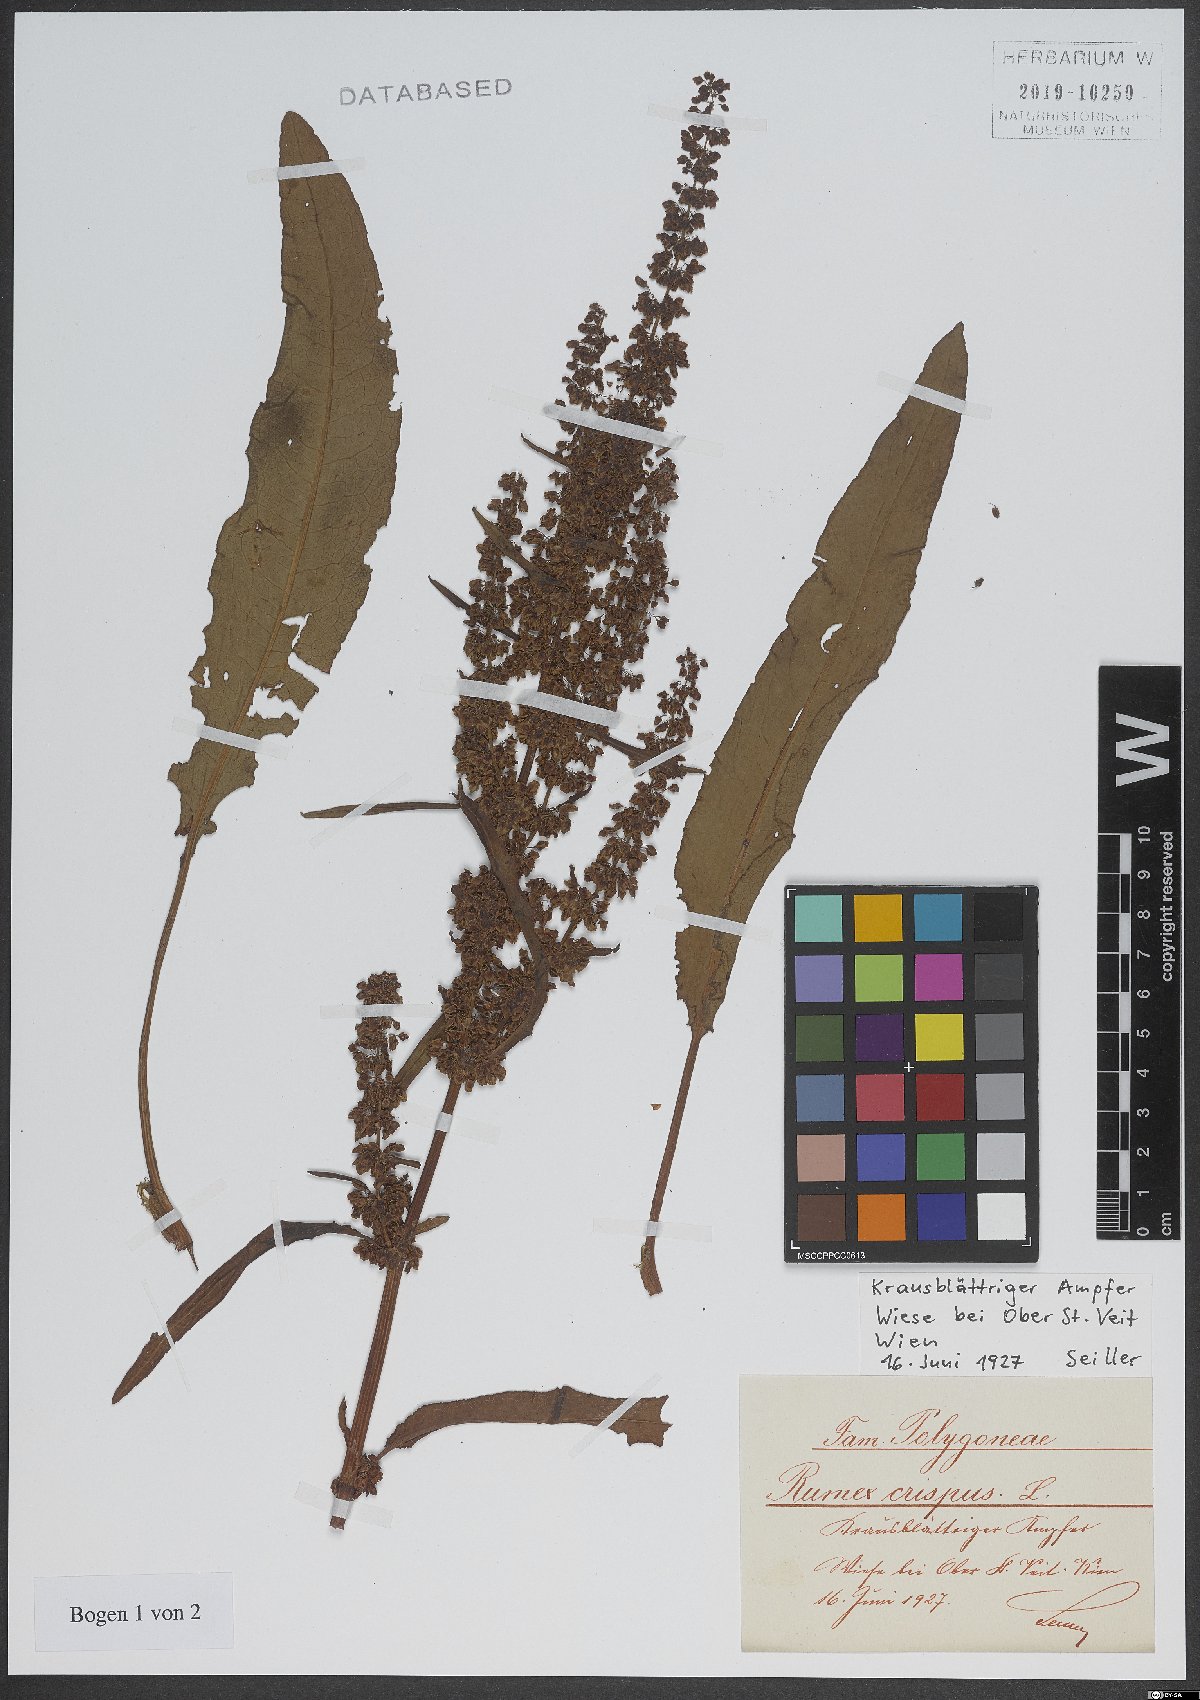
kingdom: Plantae
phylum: Tracheophyta
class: Magnoliopsida
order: Caryophyllales
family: Polygonaceae
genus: Rumex
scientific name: Rumex crispus
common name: Curled dock
